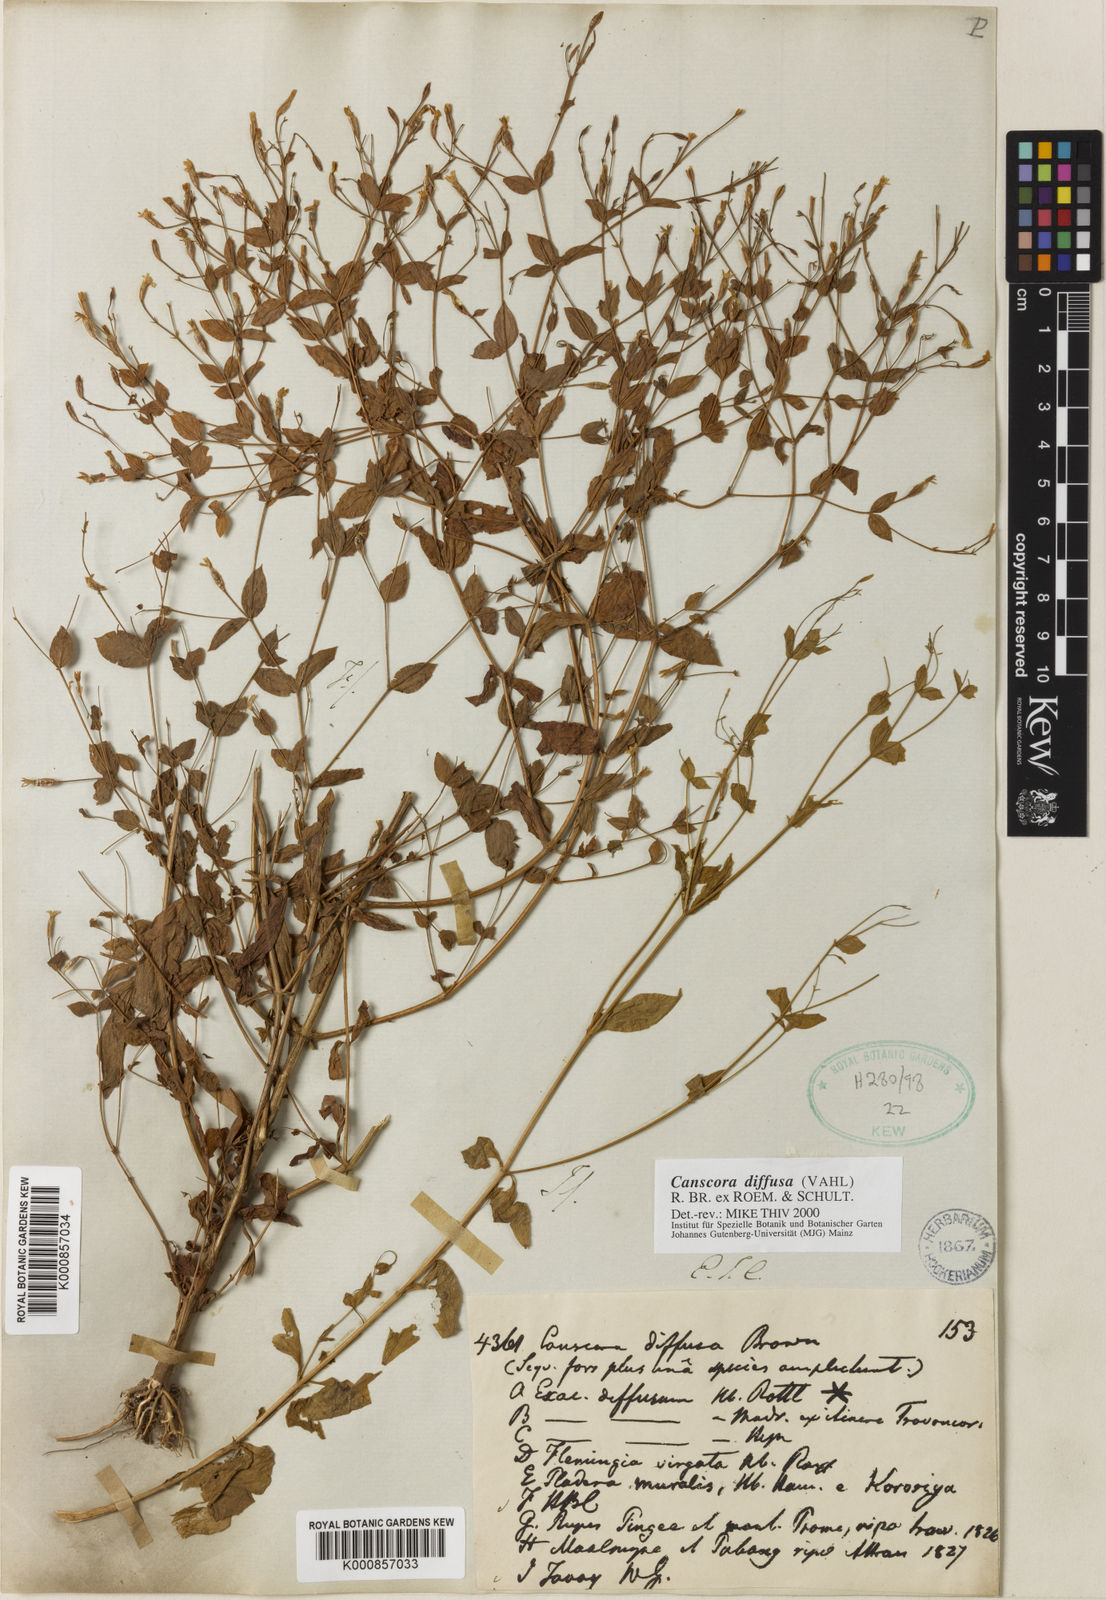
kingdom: Plantae
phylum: Tracheophyta
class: Magnoliopsida
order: Gentianales
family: Gentianaceae
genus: Canscora
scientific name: Canscora diffusa
